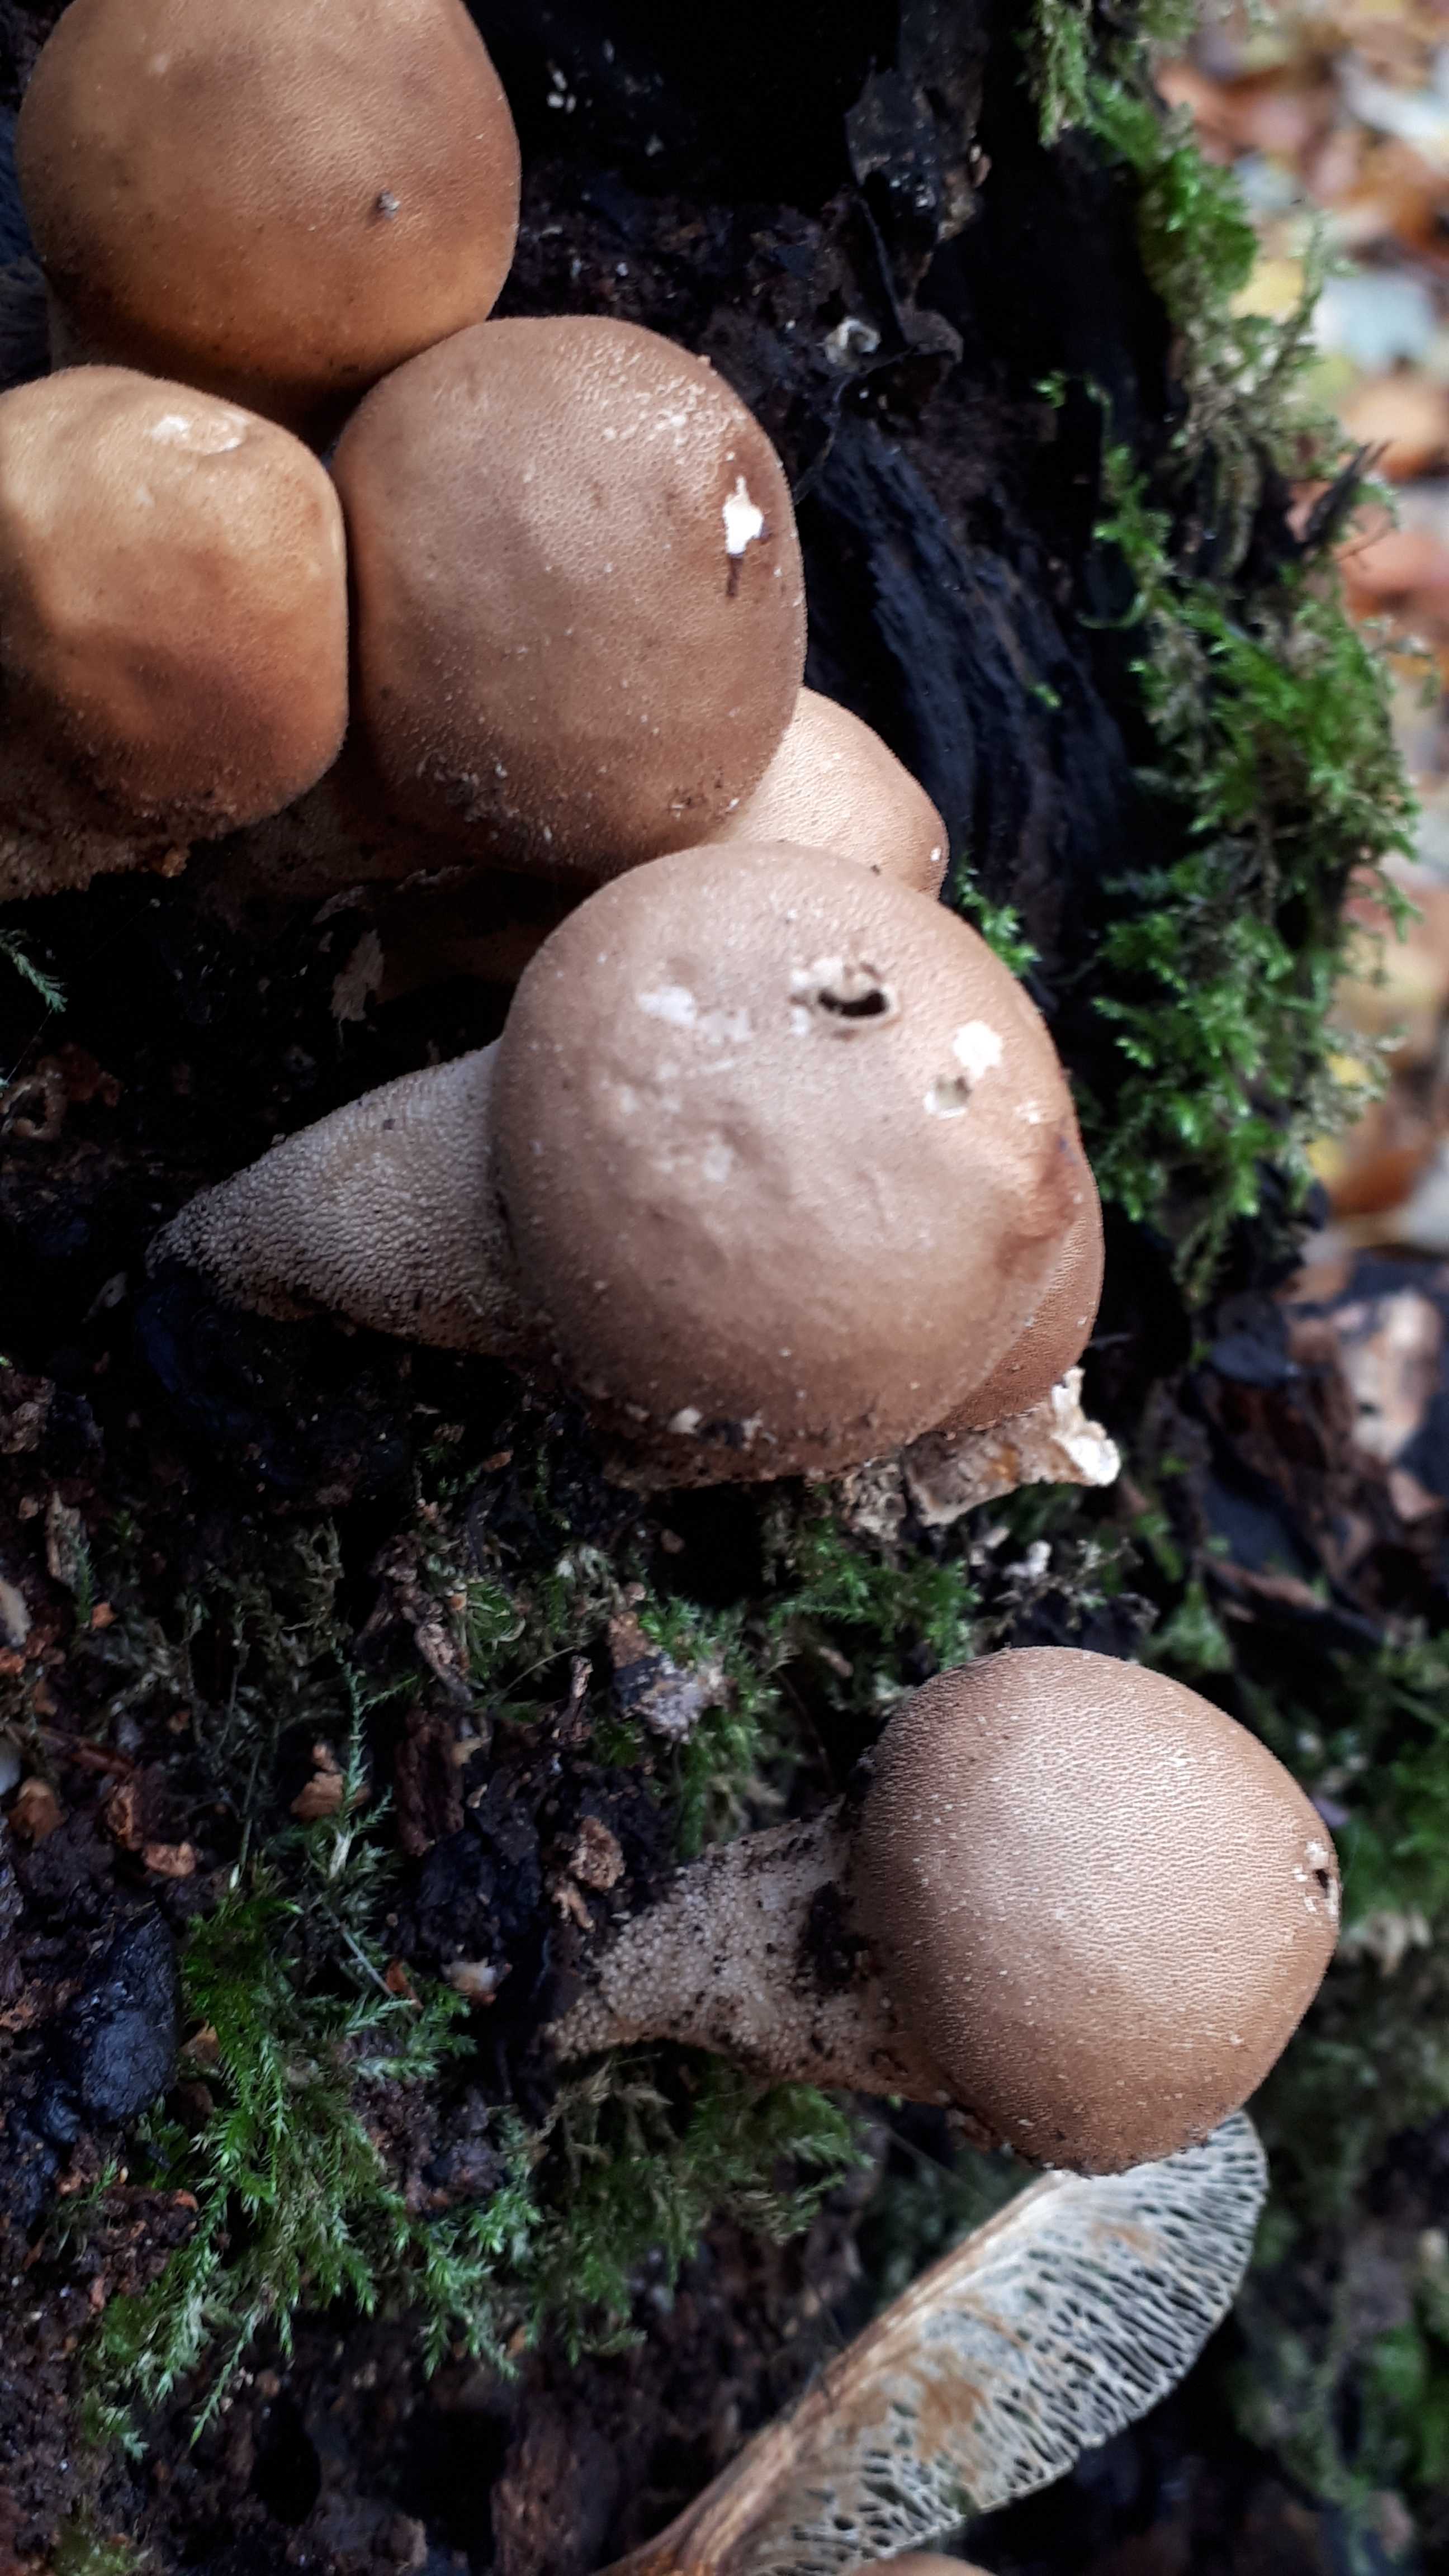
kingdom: Fungi
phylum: Basidiomycota
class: Agaricomycetes
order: Agaricales
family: Lycoperdaceae
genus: Apioperdon
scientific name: Apioperdon pyriforme
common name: pære-støvbold
